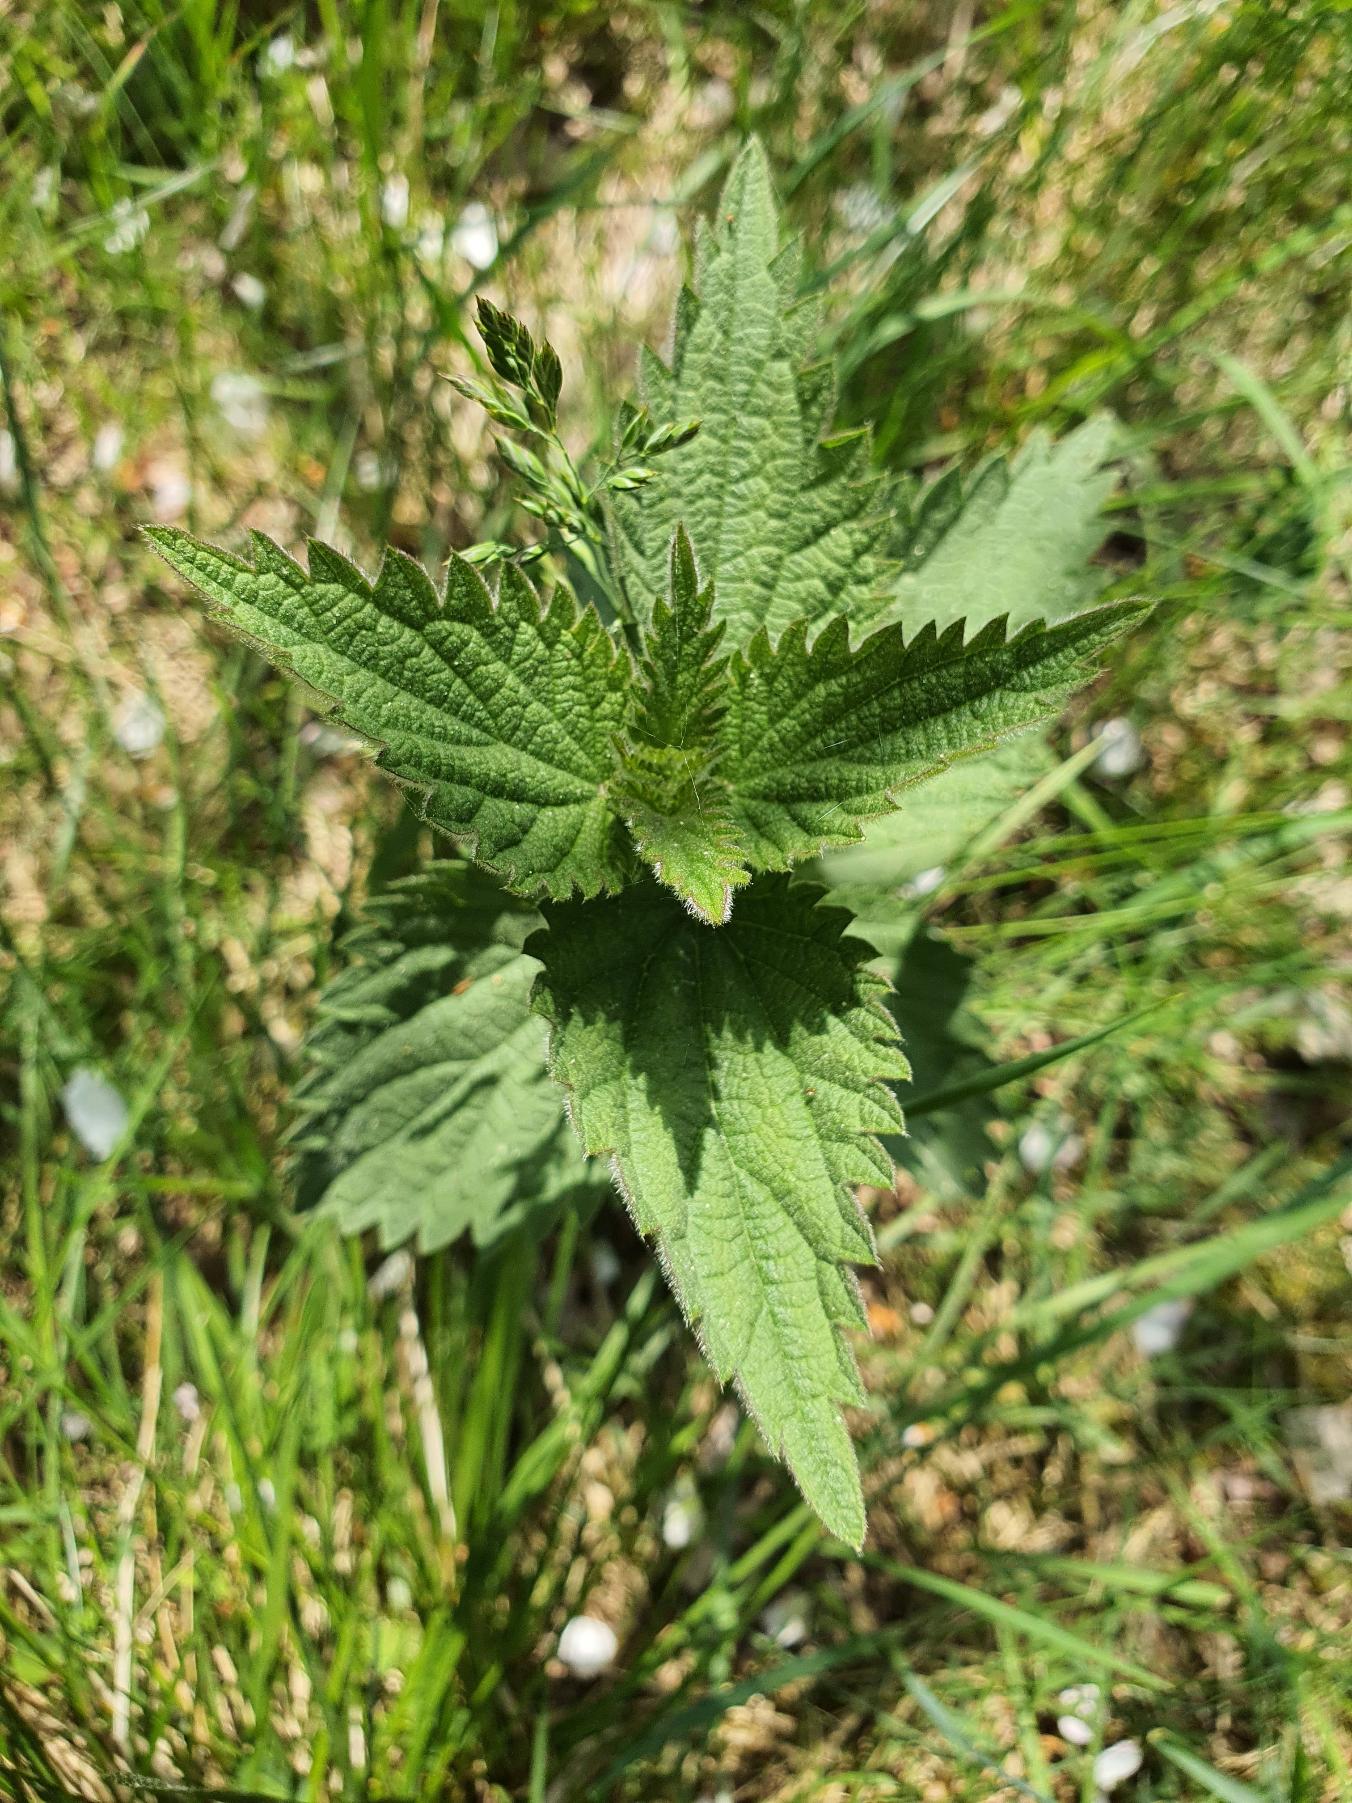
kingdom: Plantae
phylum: Tracheophyta
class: Magnoliopsida
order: Rosales
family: Urticaceae
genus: Urtica
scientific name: Urtica dioica
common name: Stor nælde
